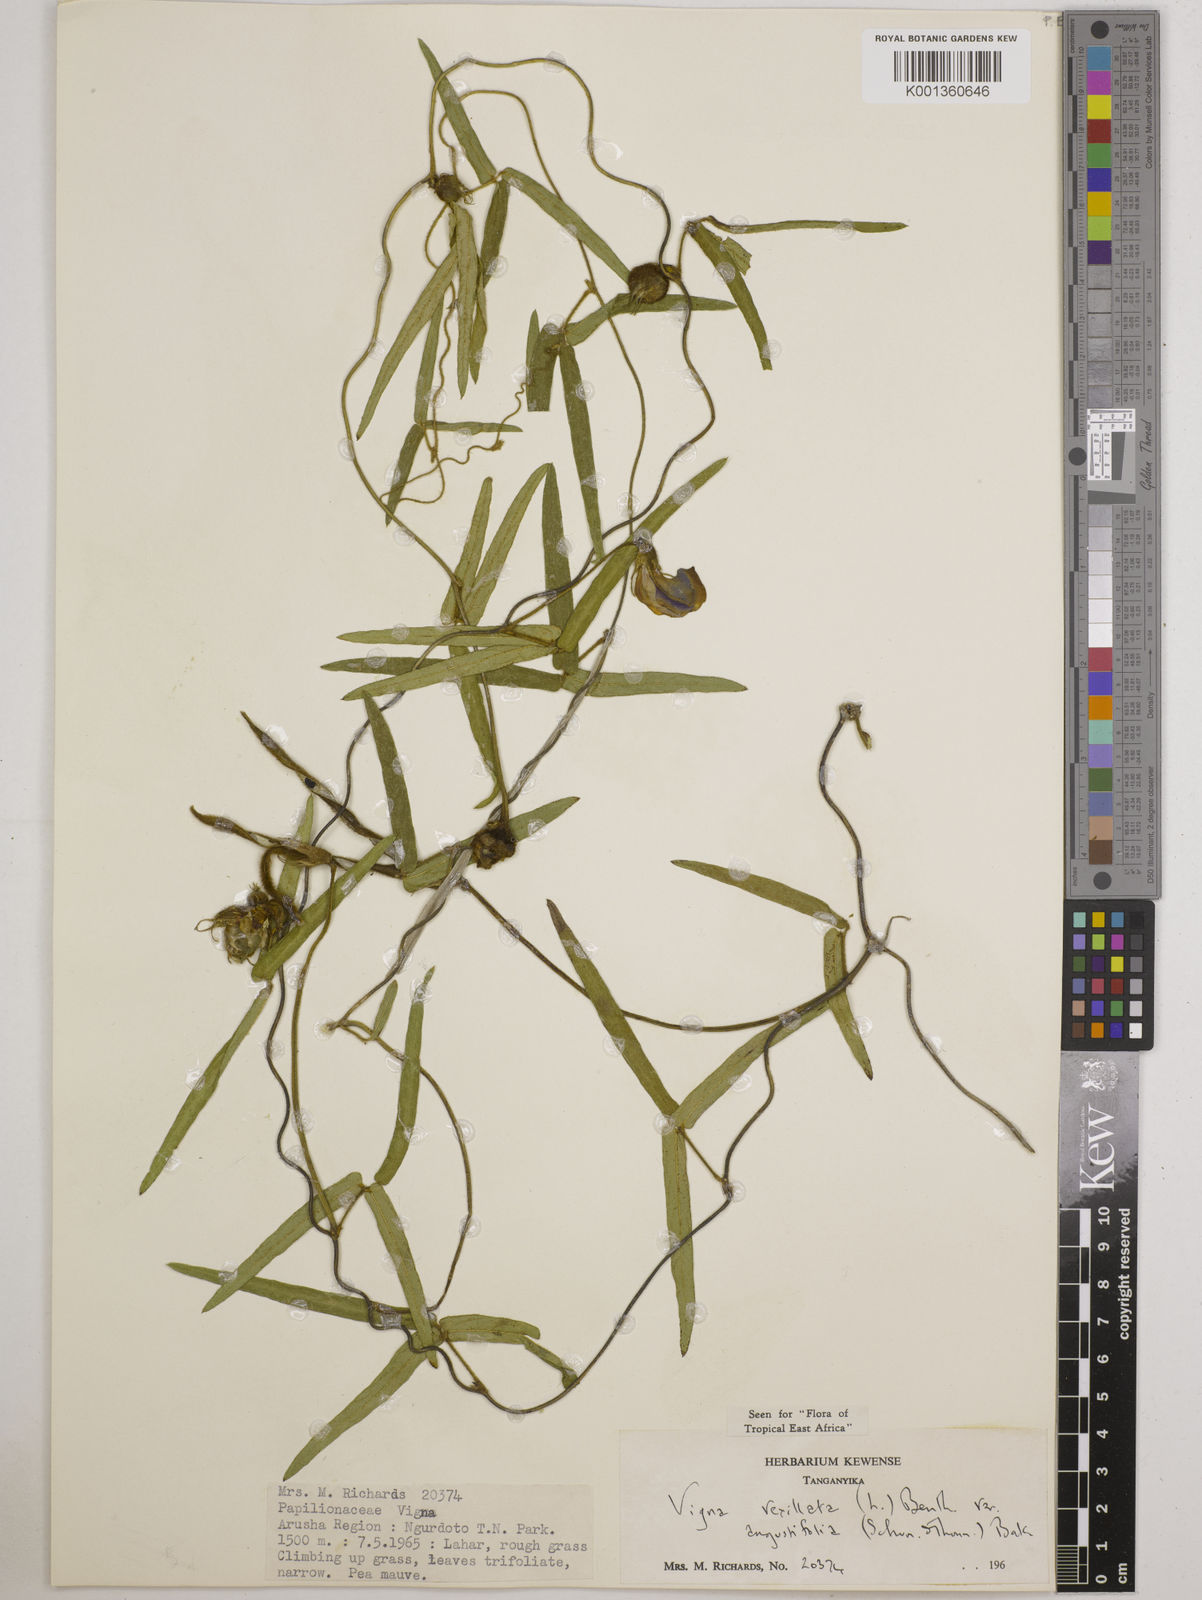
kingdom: Plantae
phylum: Tracheophyta
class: Magnoliopsida
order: Fabales
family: Fabaceae
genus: Vigna
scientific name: Vigna vexillata
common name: Zombi pea
